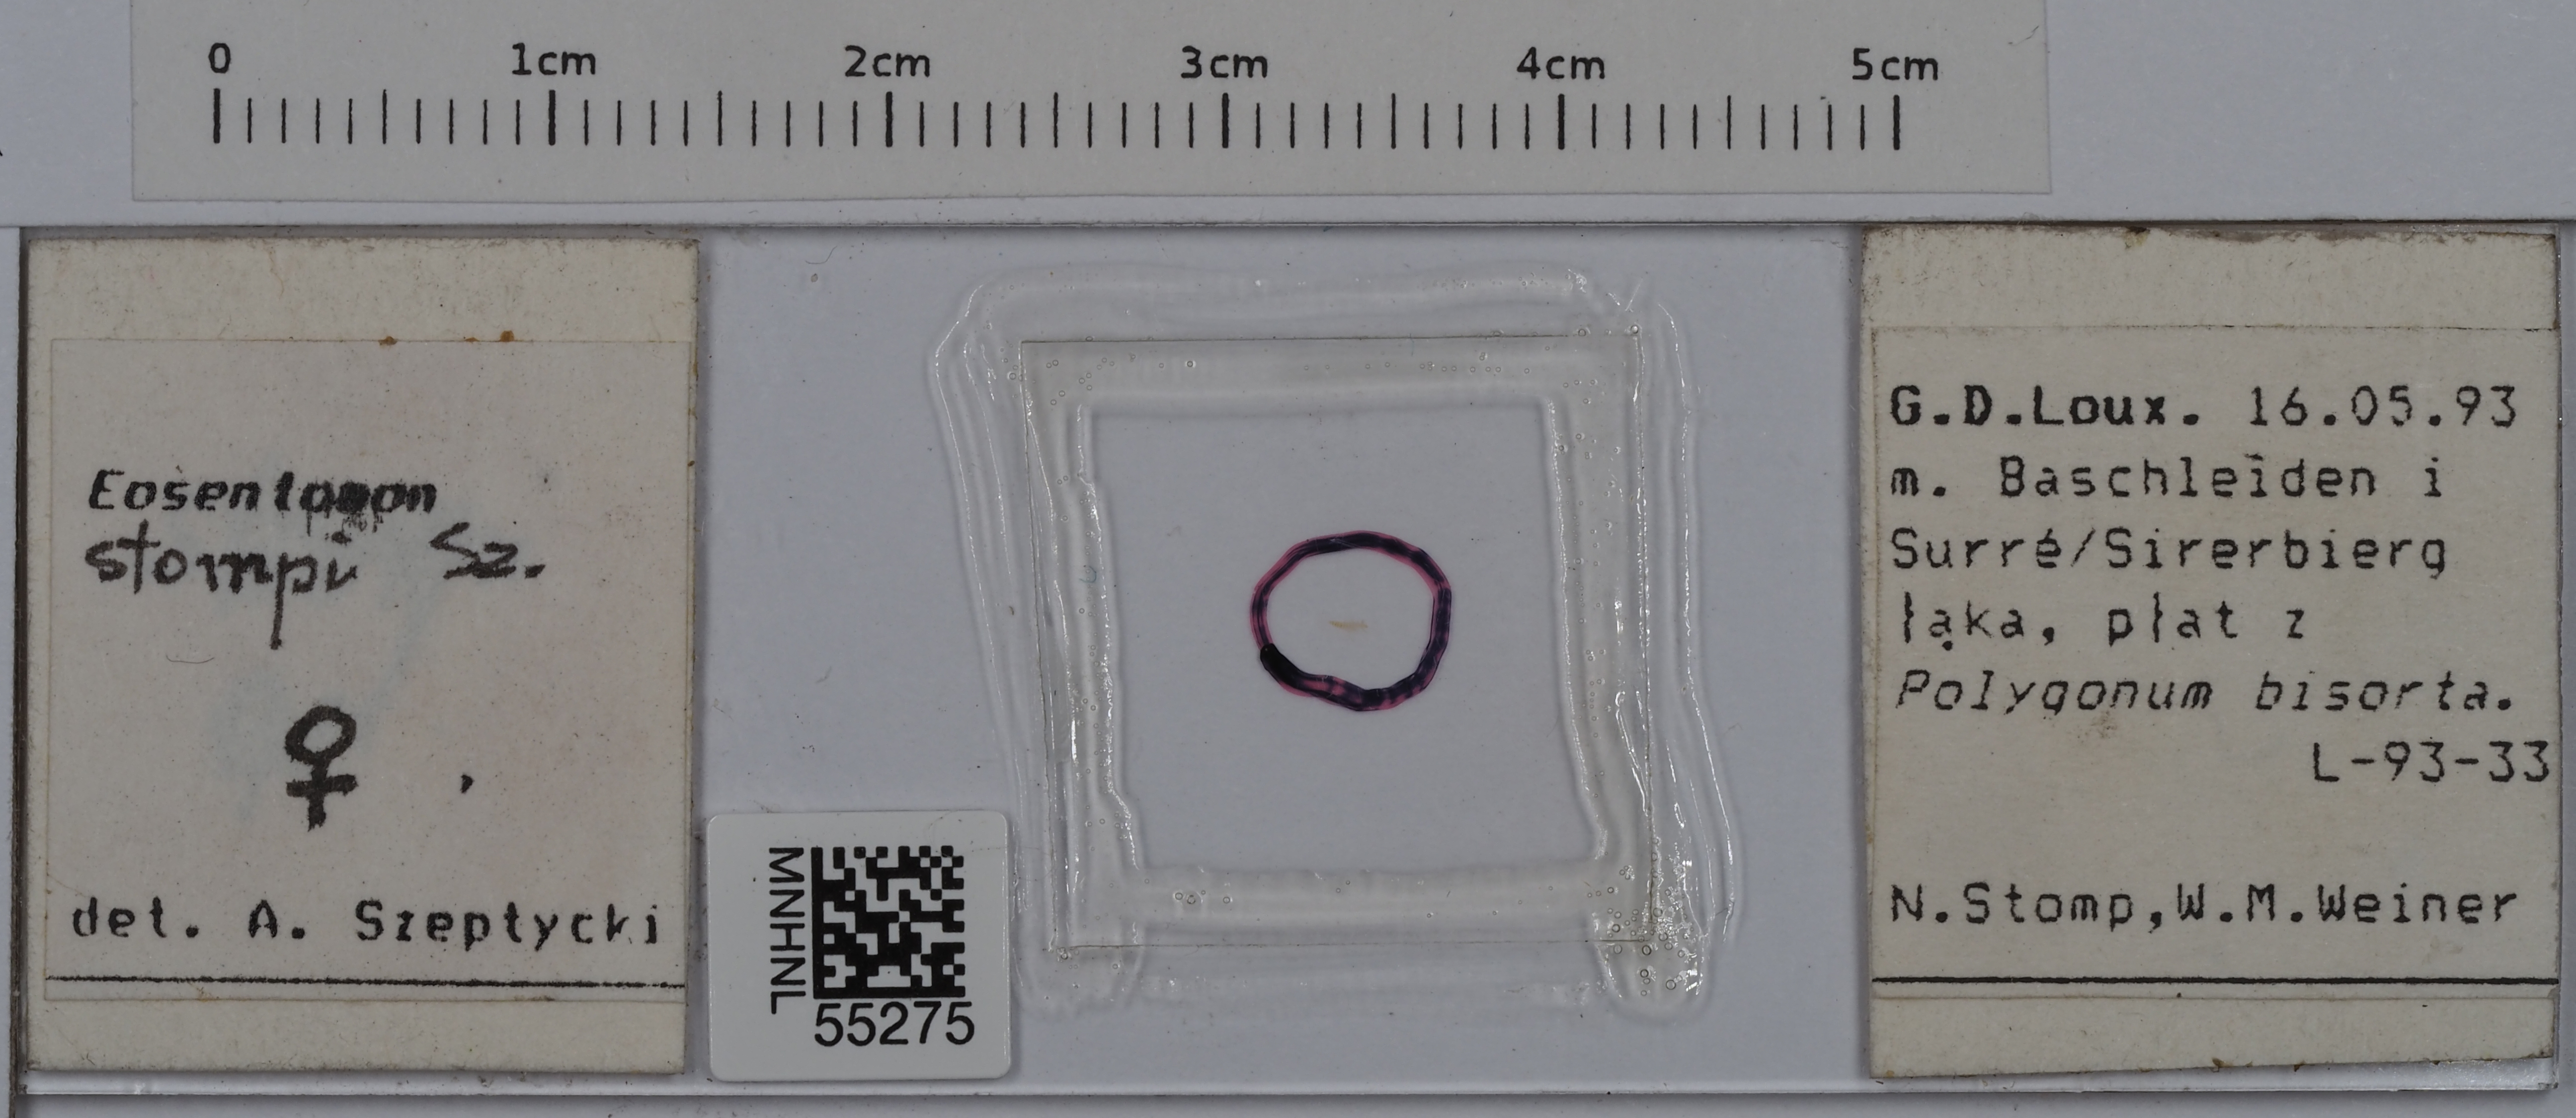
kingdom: Animalia
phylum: Arthropoda
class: Protura
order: Protura
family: Eosentomidae
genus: Eosentomon
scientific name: Eosentomon stompi
